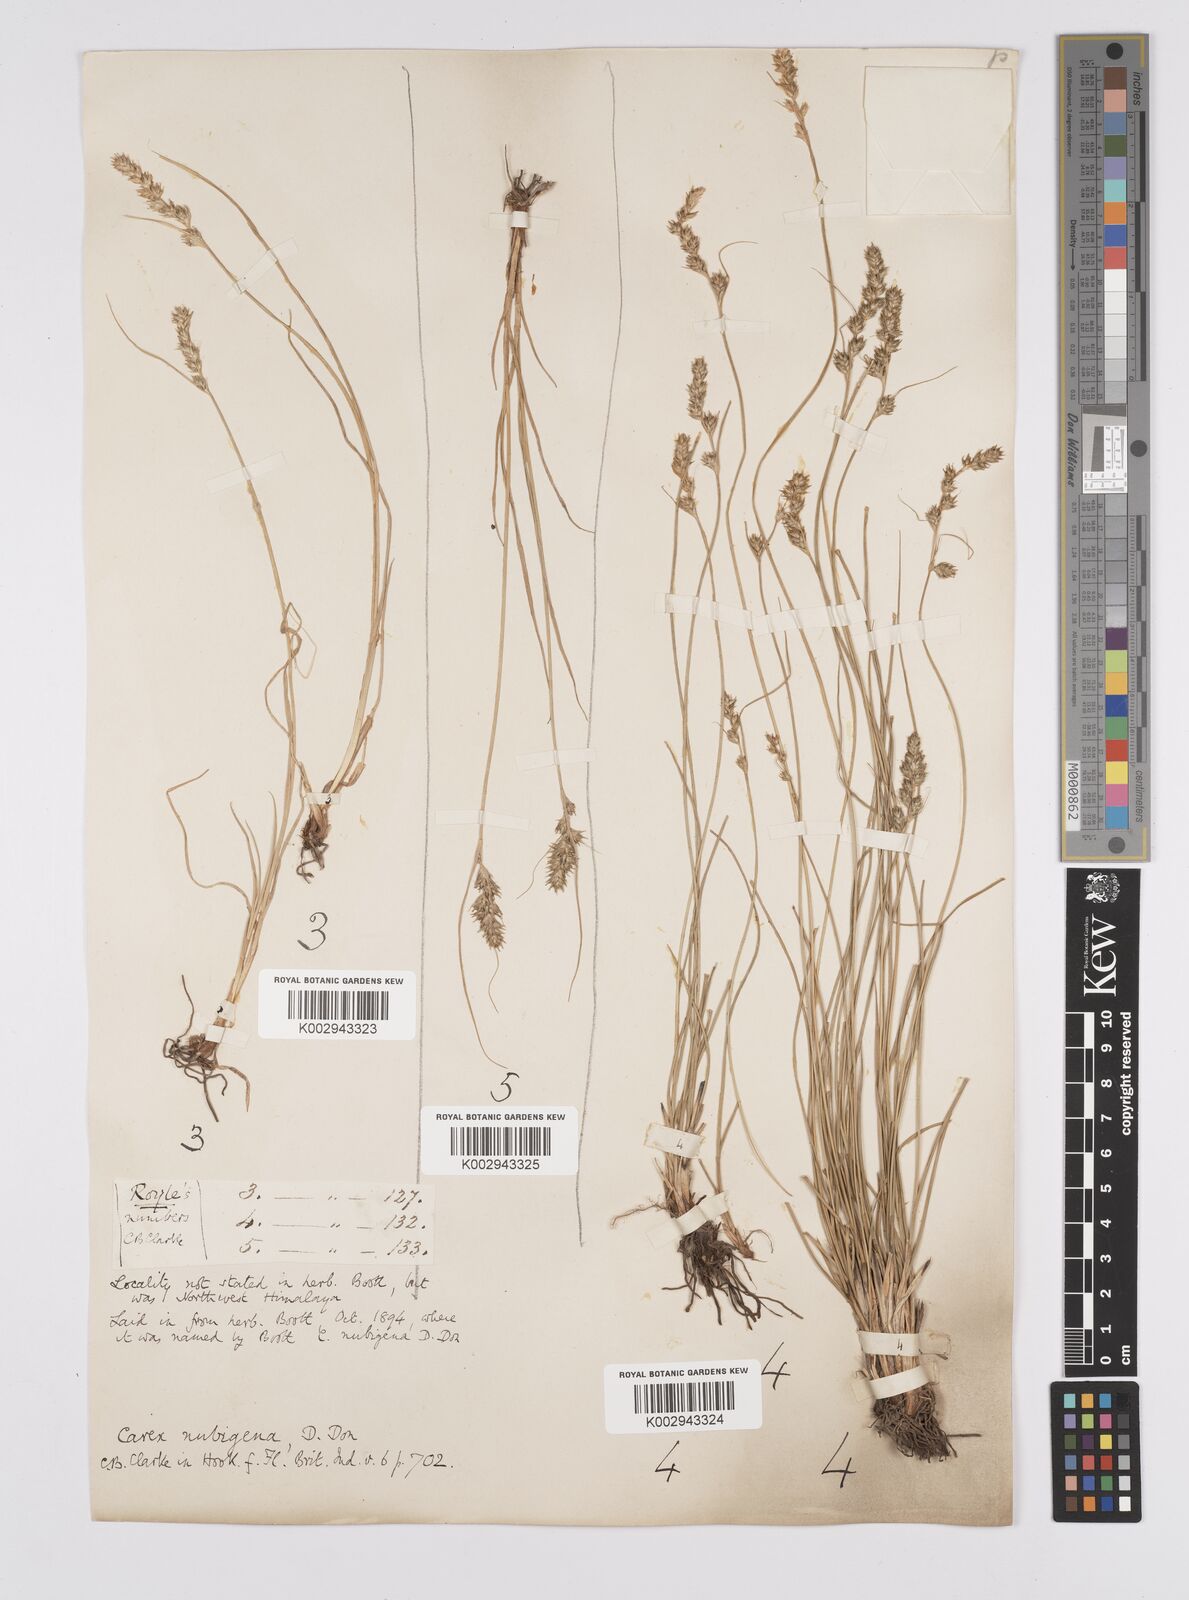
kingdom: Plantae
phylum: Tracheophyta
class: Liliopsida
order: Poales
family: Cyperaceae
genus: Carex
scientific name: Carex nubigena
